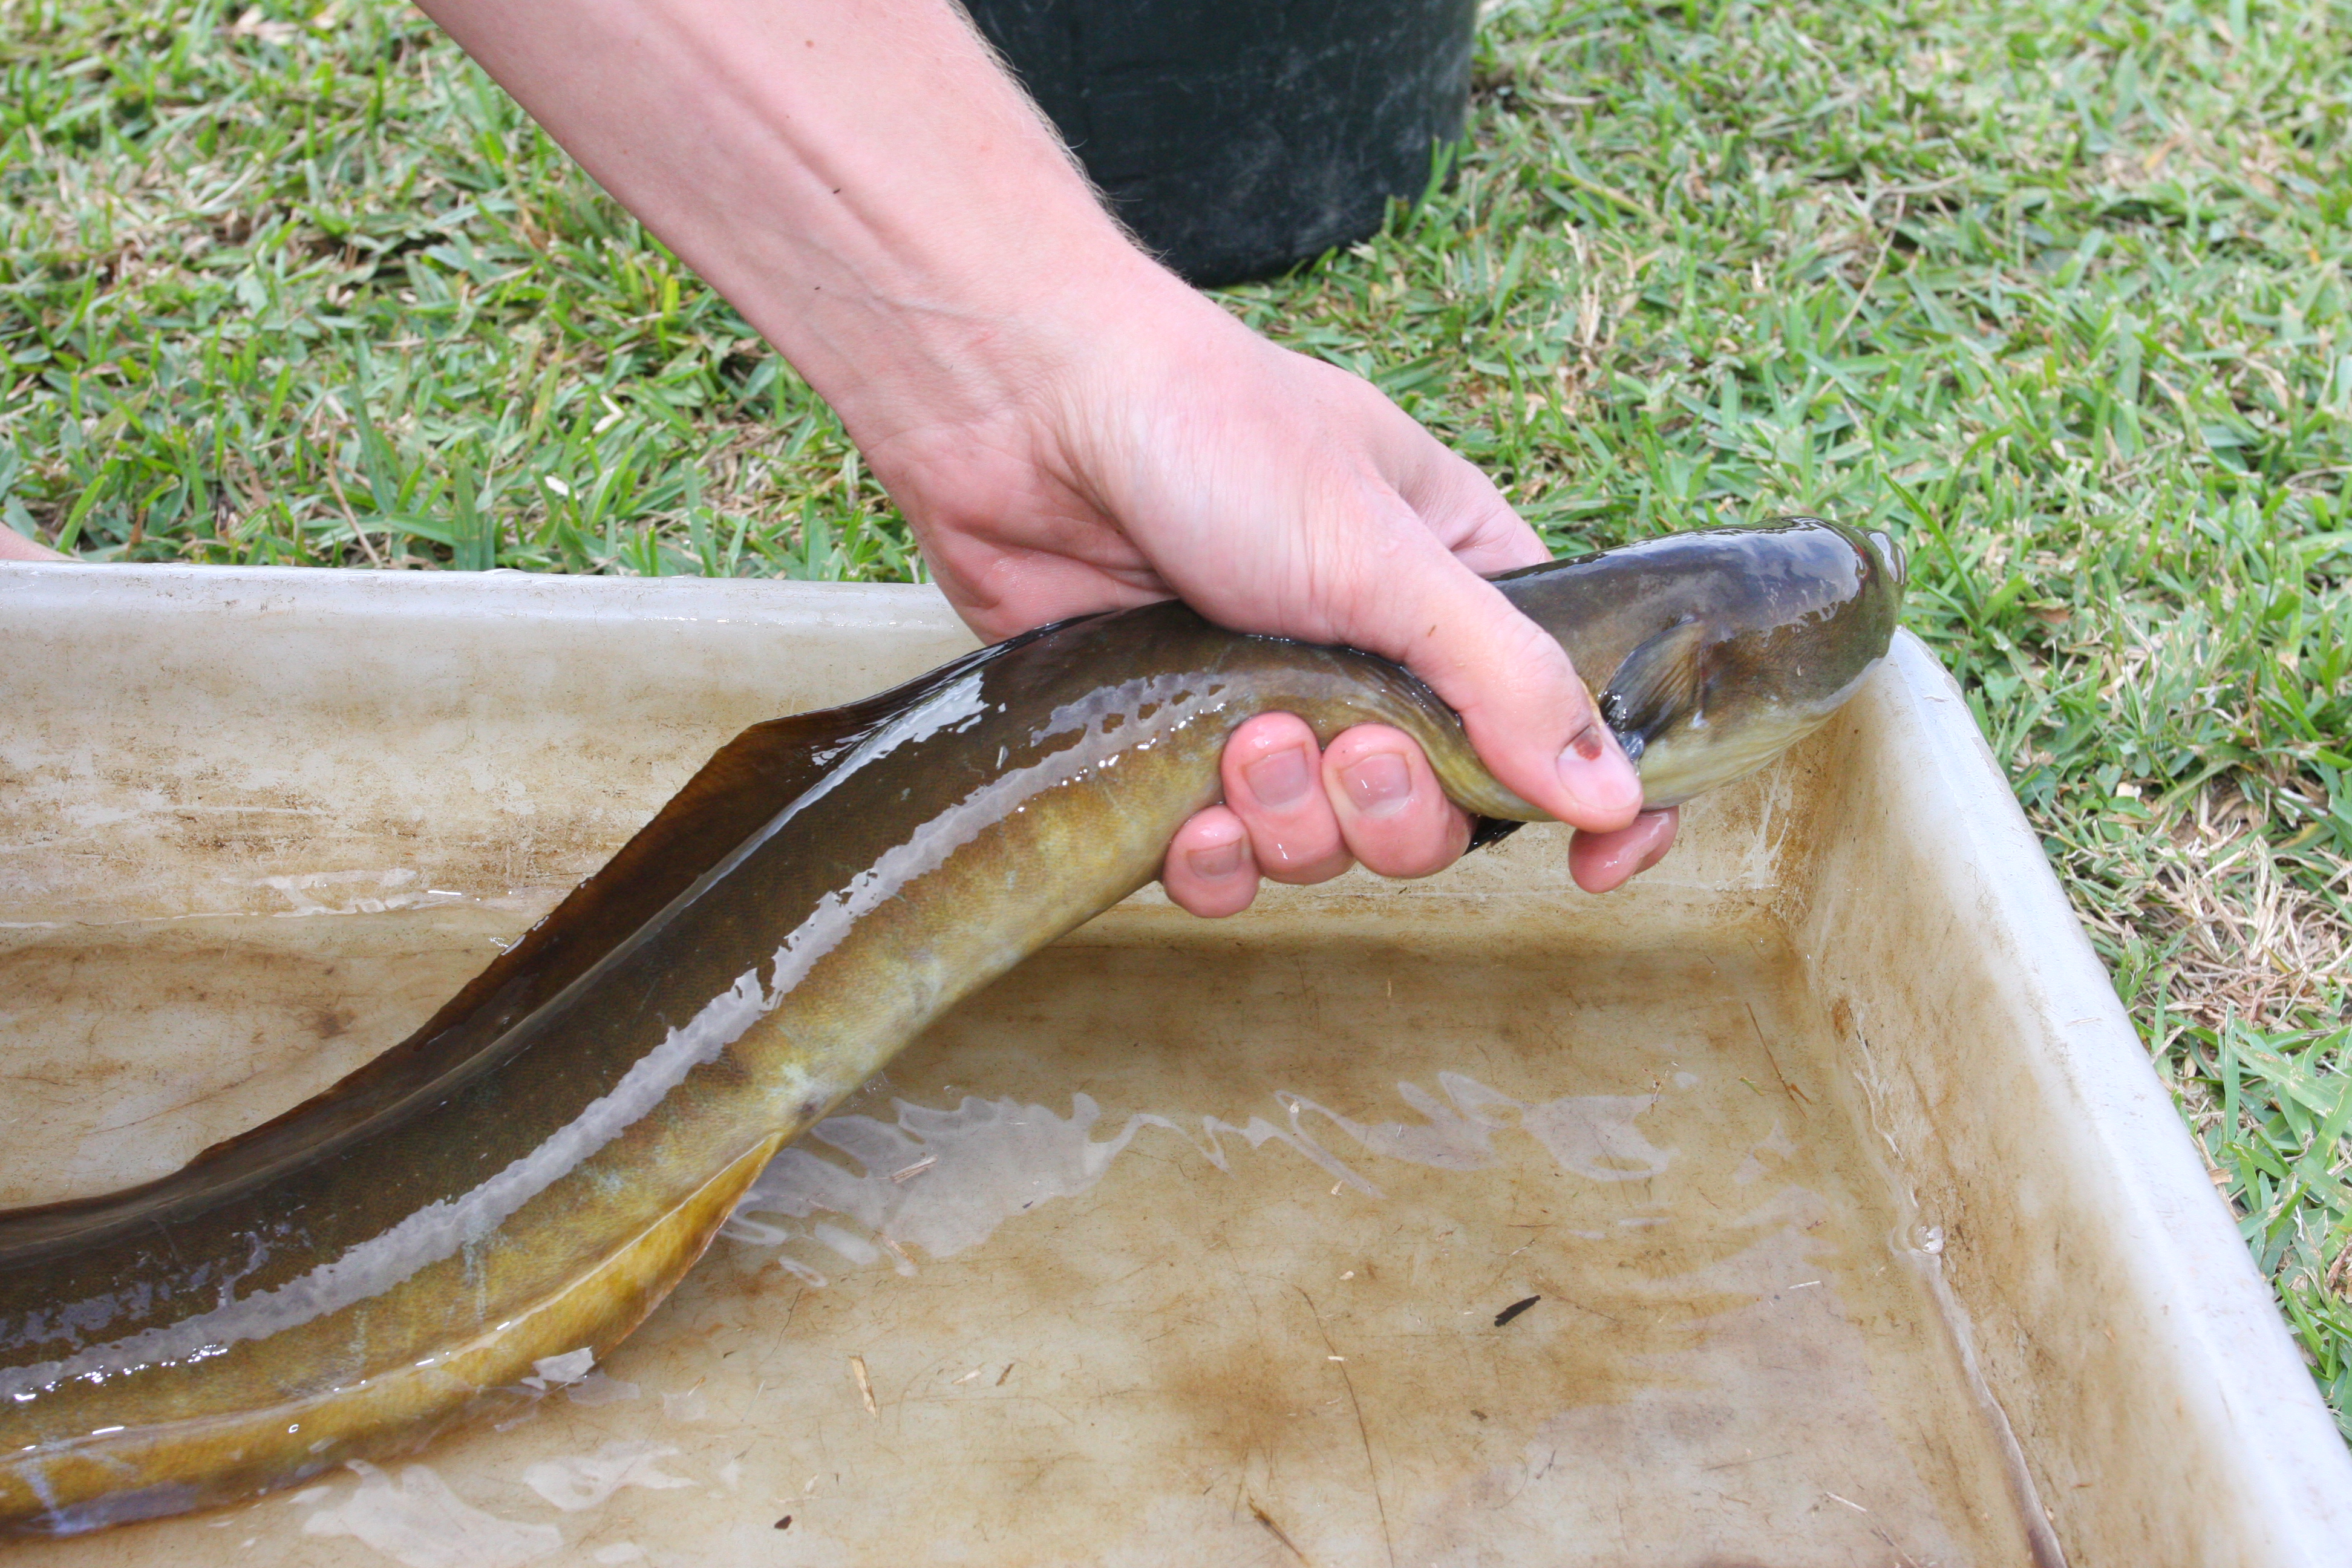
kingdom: Animalia
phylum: Chordata
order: Anguilliformes
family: Anguillidae
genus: Anguilla
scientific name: Anguilla mossambica
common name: African longfin eel
